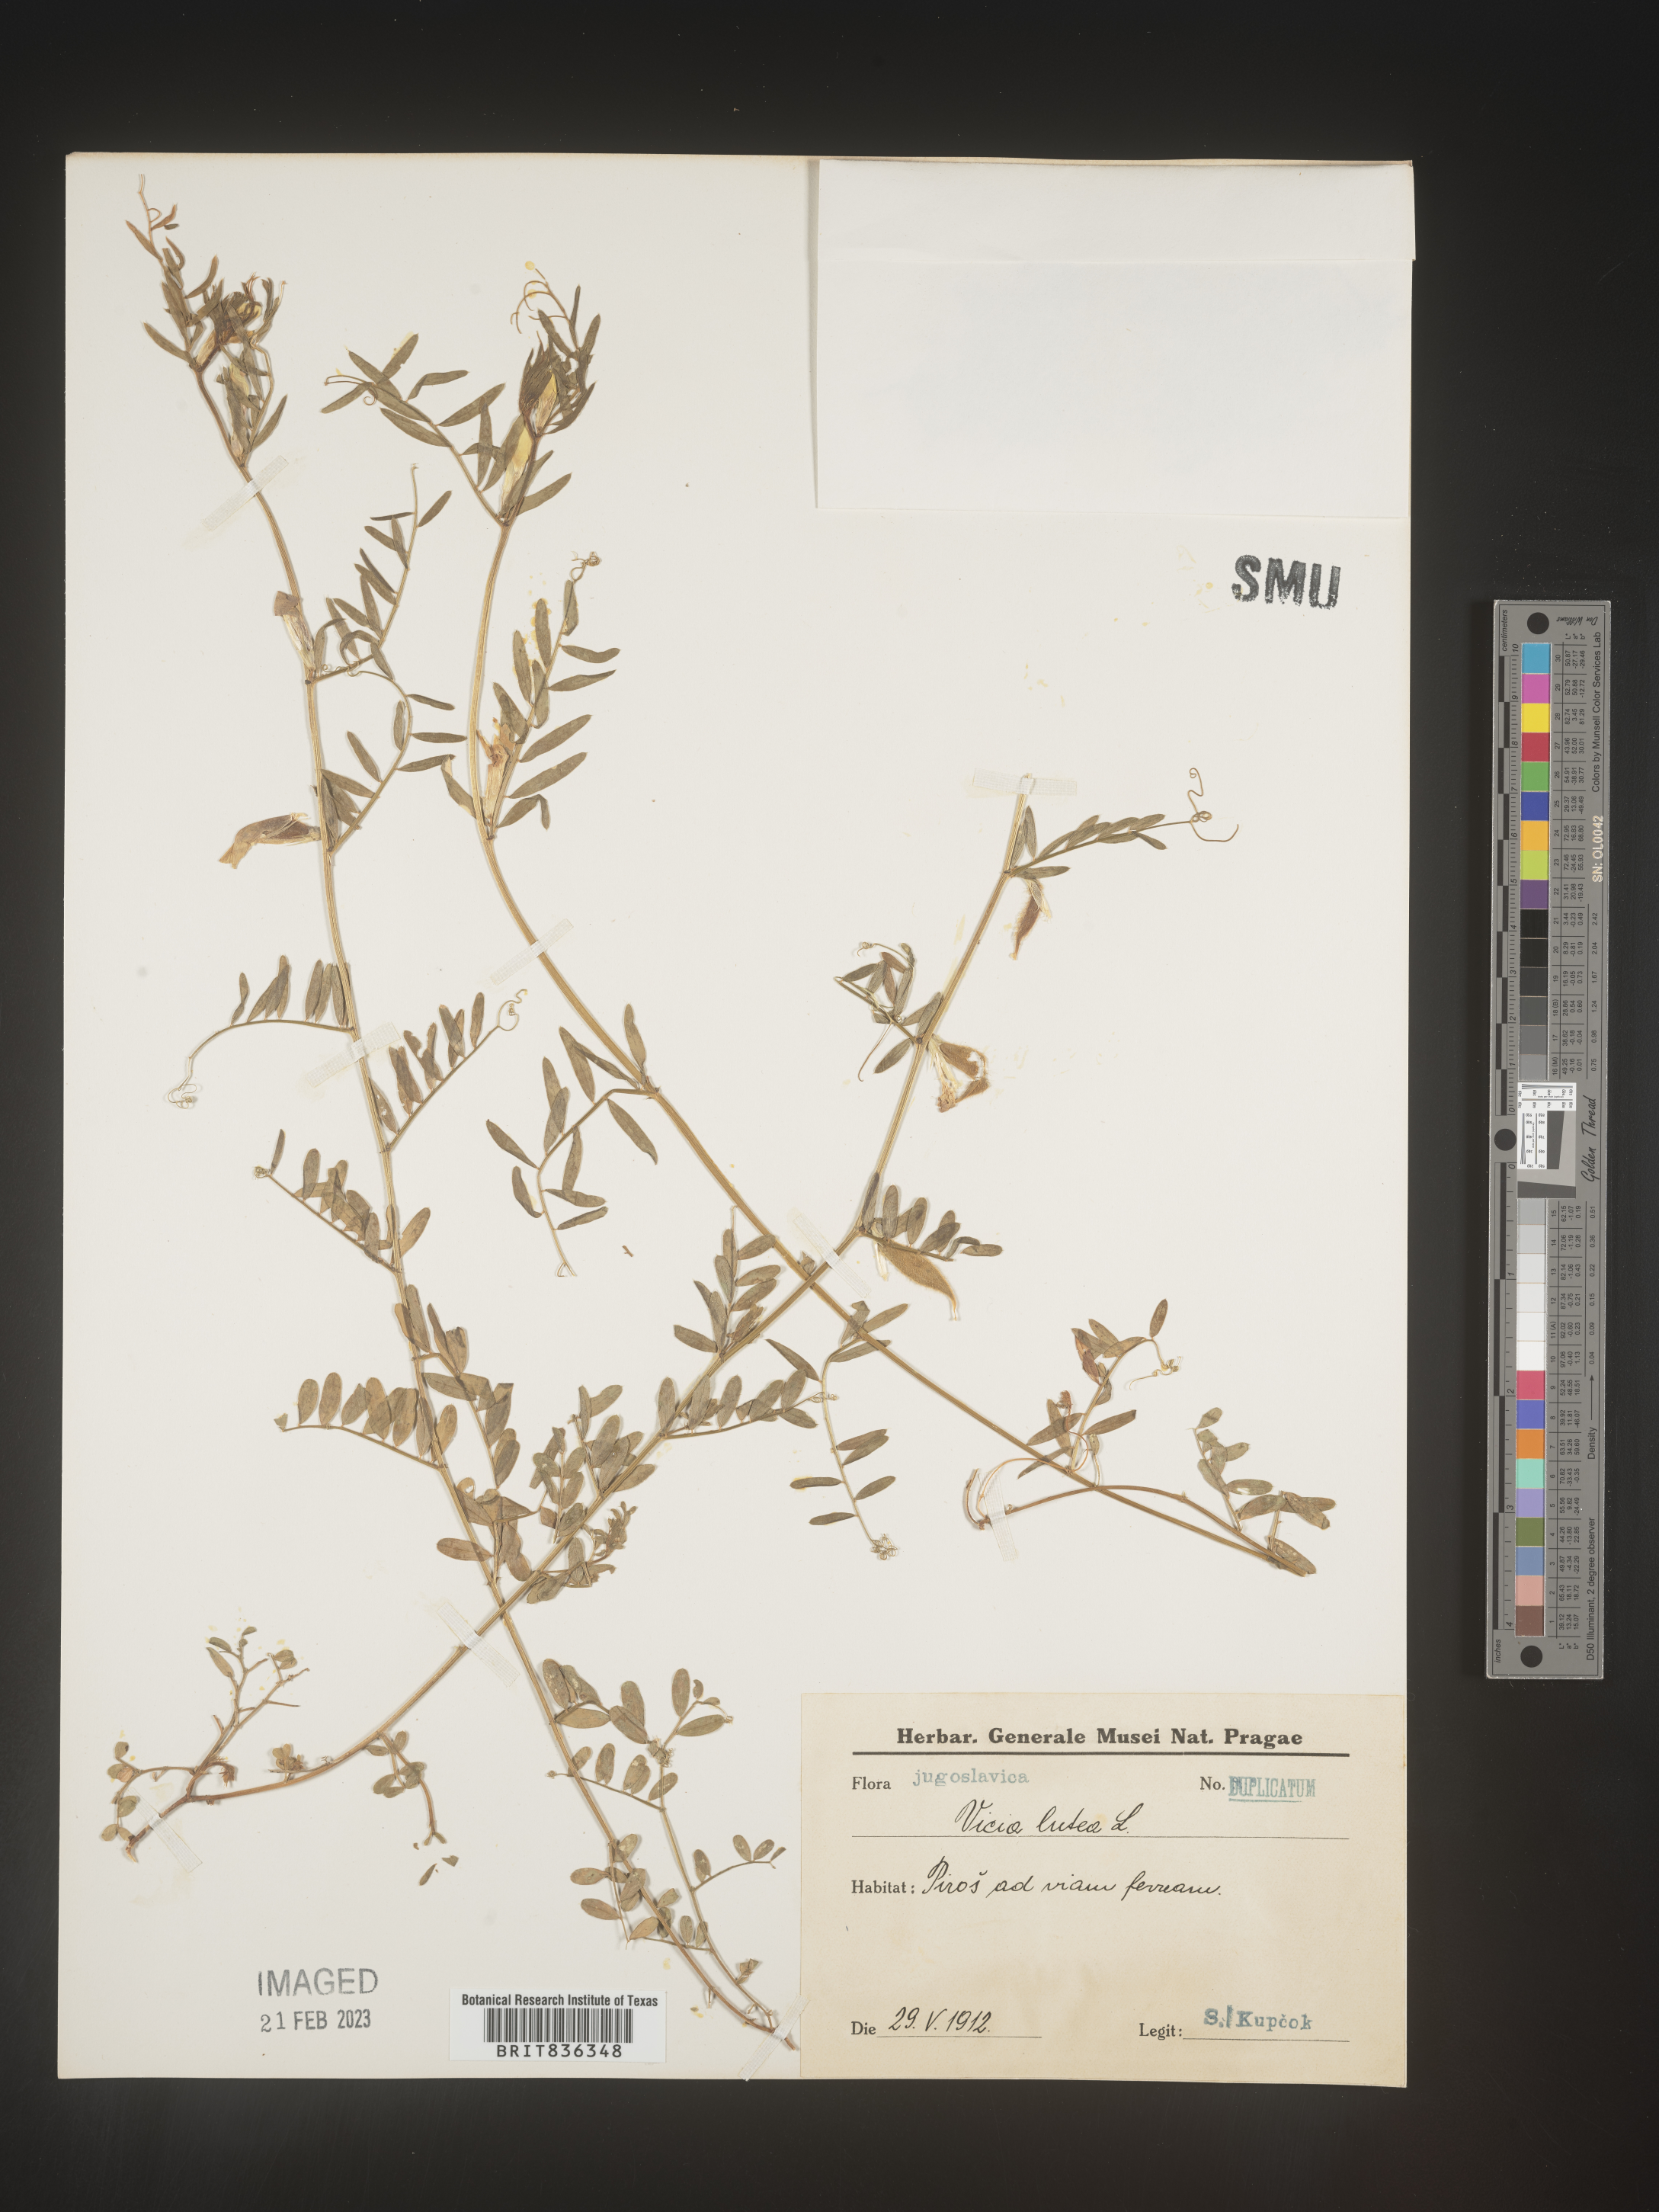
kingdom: Plantae
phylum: Tracheophyta
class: Magnoliopsida
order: Fabales
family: Fabaceae
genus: Vicia
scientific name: Vicia
